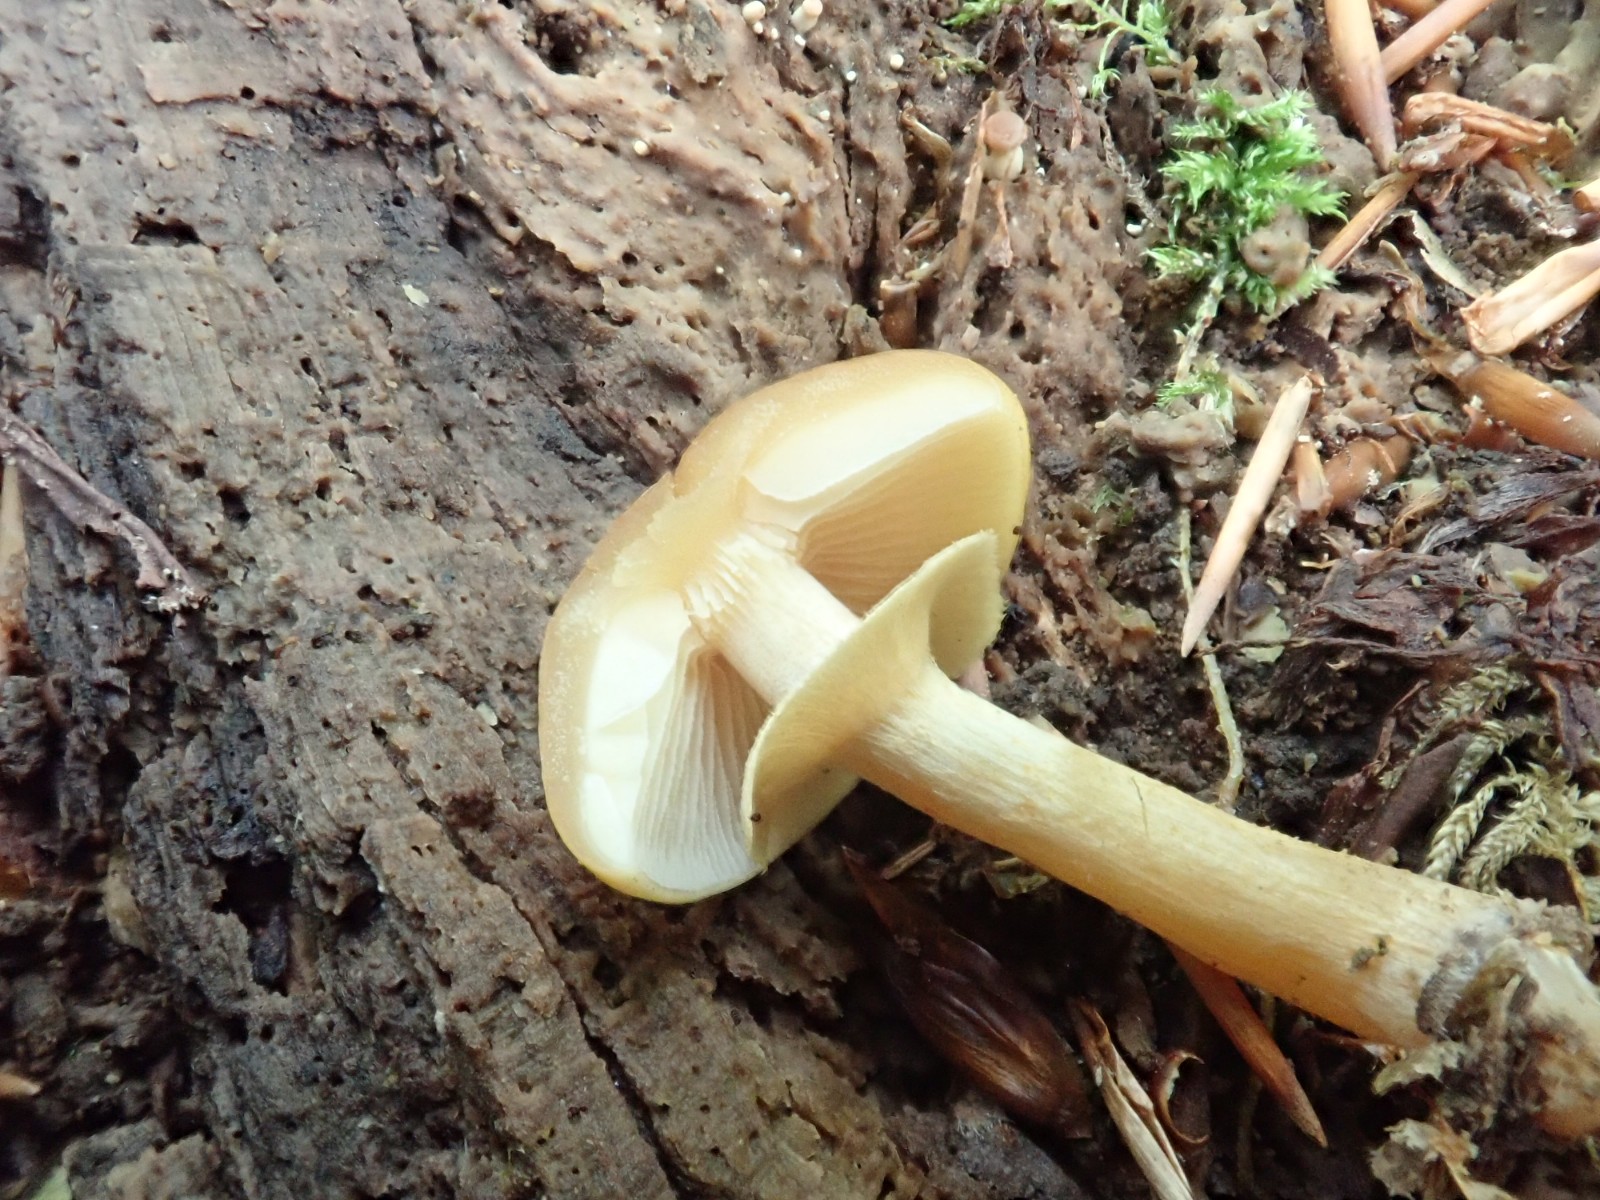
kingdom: Fungi
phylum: Basidiomycota
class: Agaricomycetes
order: Agaricales
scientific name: Agaricales
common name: champignonordenen
